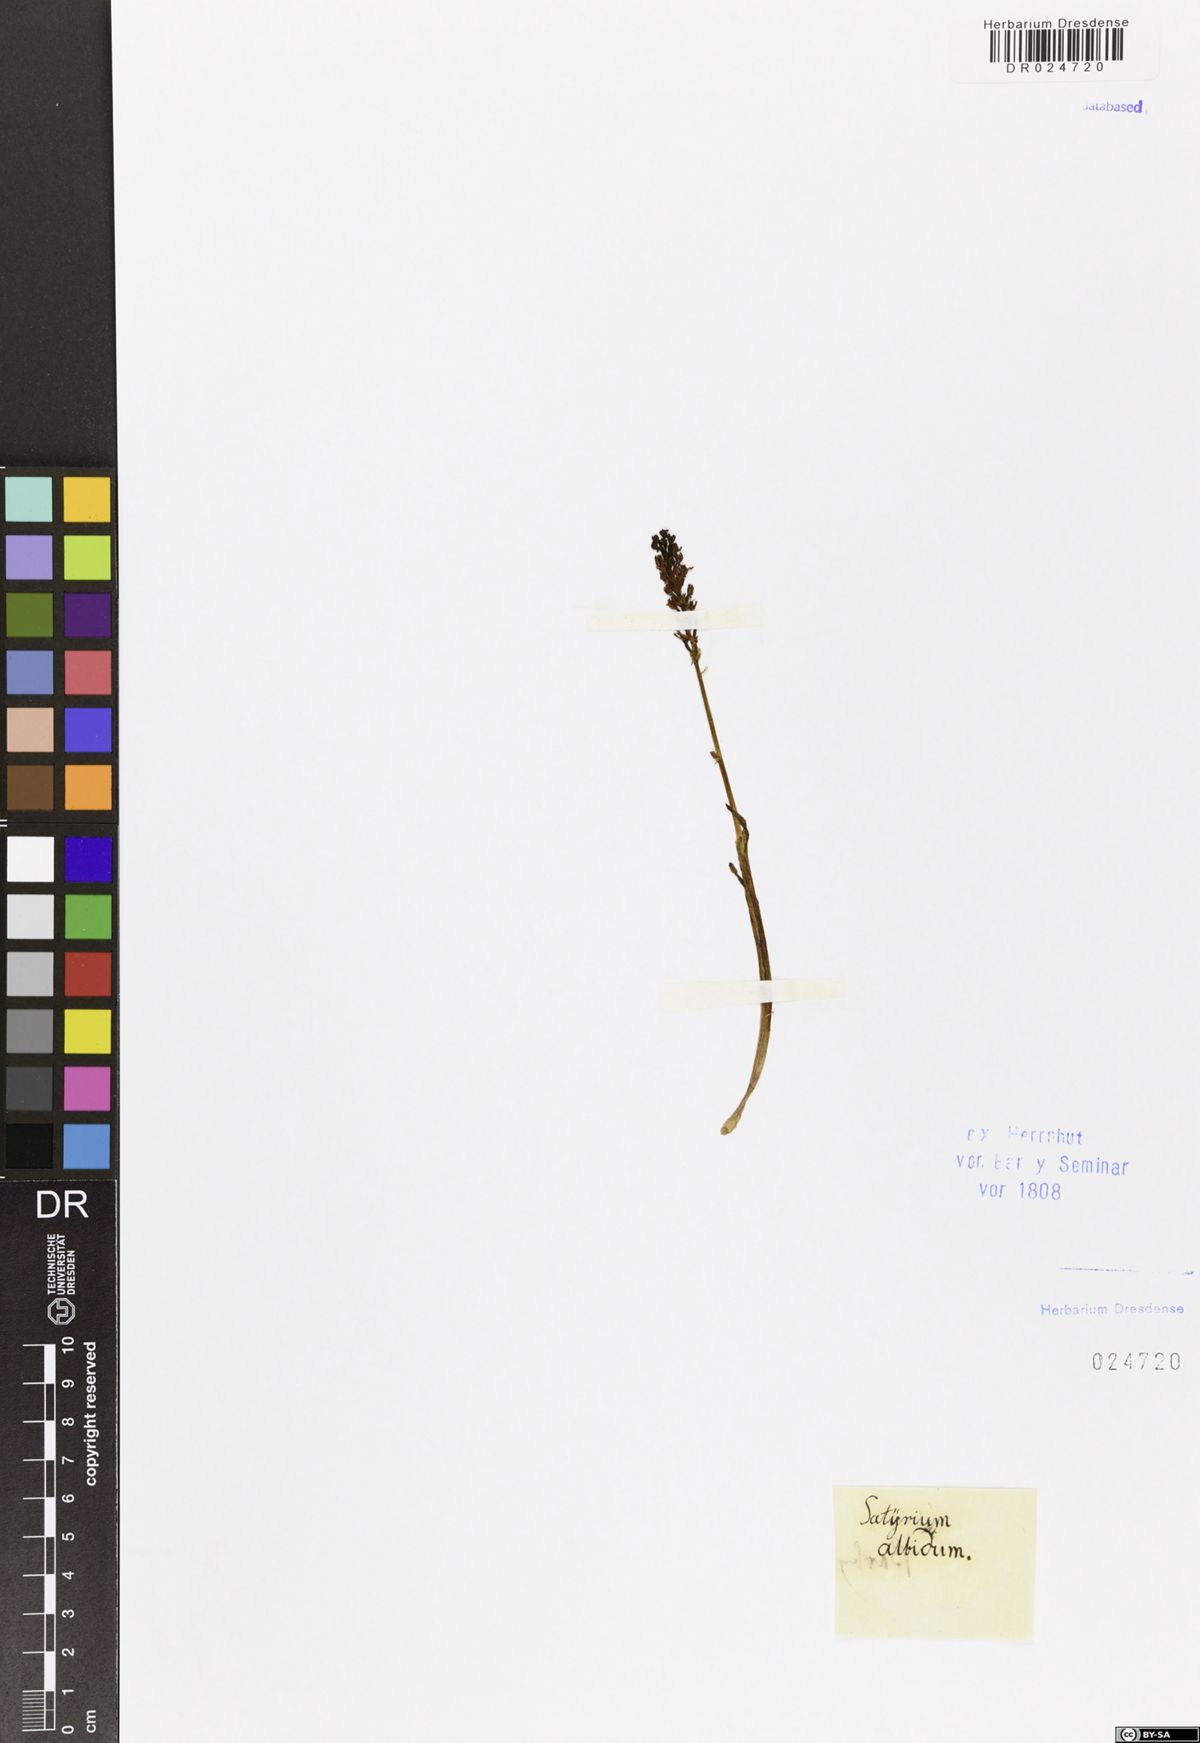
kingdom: Plantae
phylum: Tracheophyta
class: Liliopsida
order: Asparagales
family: Orchidaceae
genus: Pseudorchis
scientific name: Pseudorchis albida
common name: Small-white orchid
